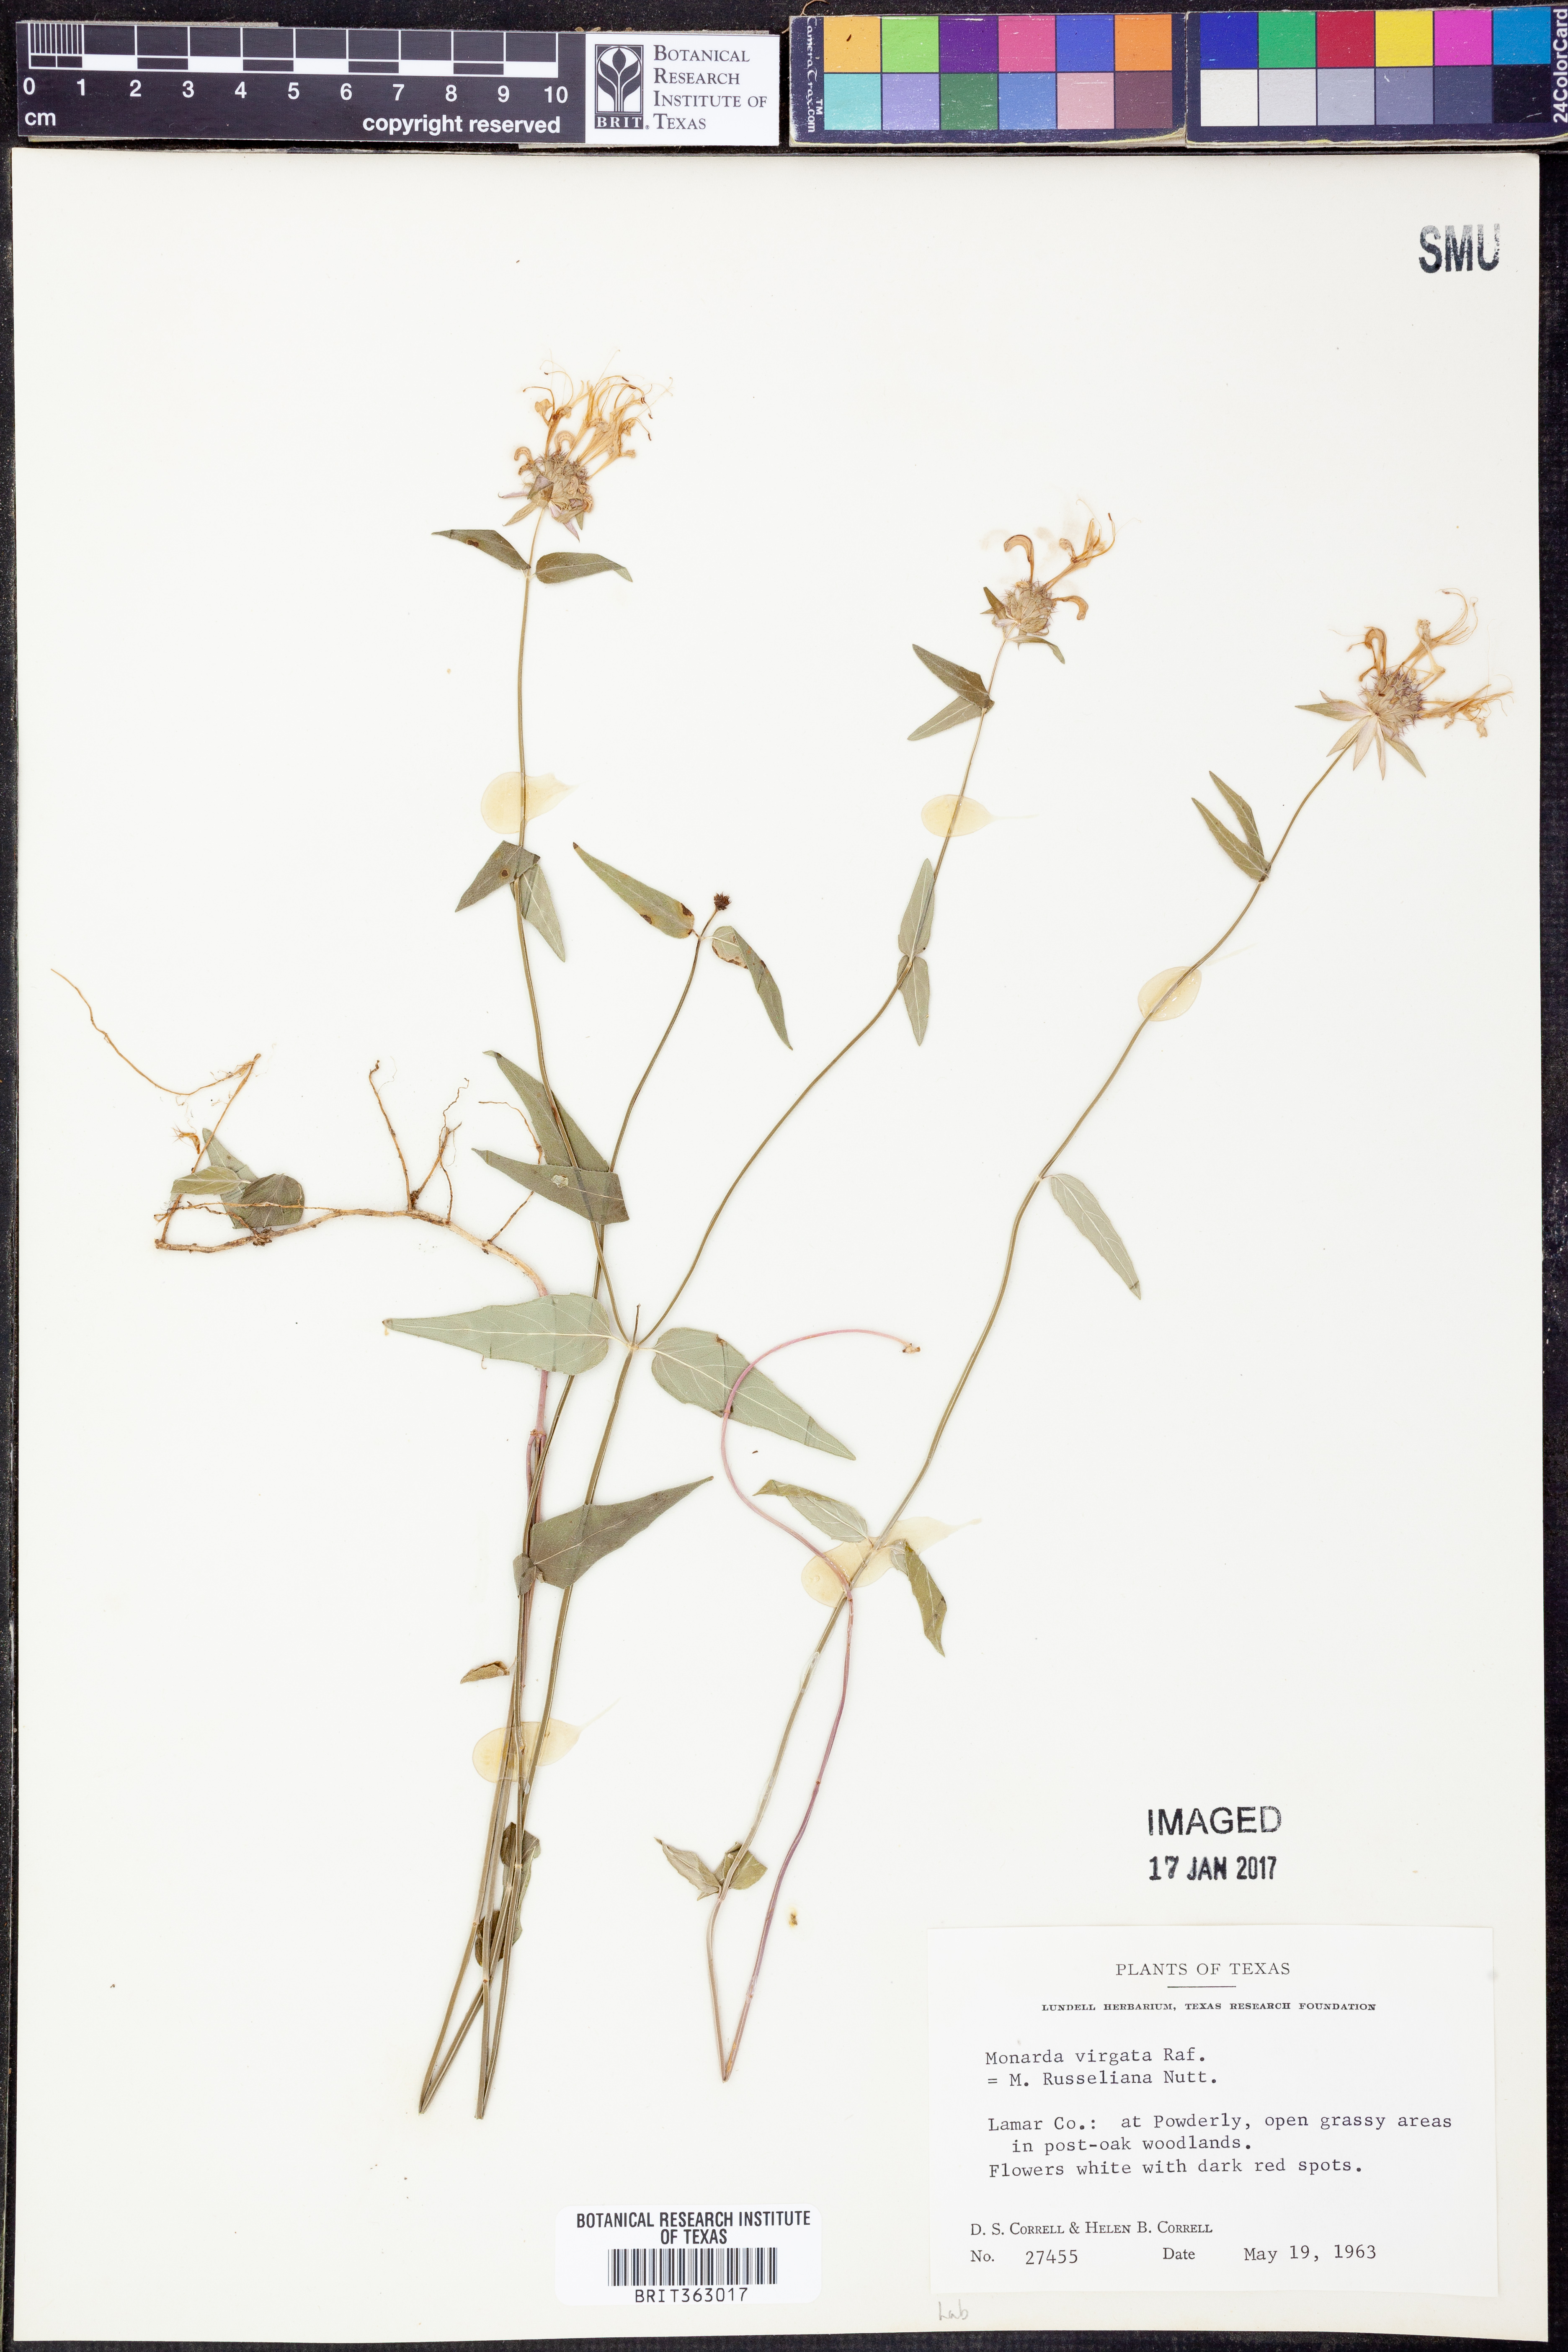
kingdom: Plantae
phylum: Tracheophyta
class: Magnoliopsida
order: Lamiales
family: Lamiaceae
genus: Monarda
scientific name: Monarda russeliana
